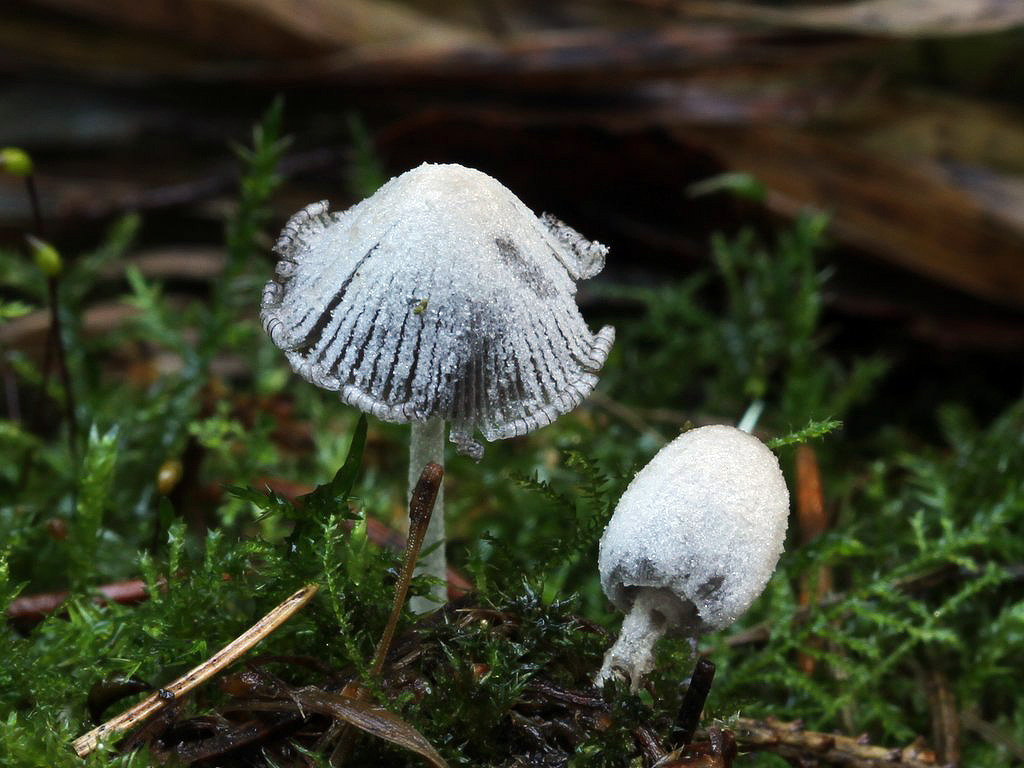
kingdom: Fungi
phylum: Basidiomycota
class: Agaricomycetes
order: Agaricales
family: Psathyrellaceae
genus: Coprinopsis
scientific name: Coprinopsis laanii
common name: stub-blækhat
